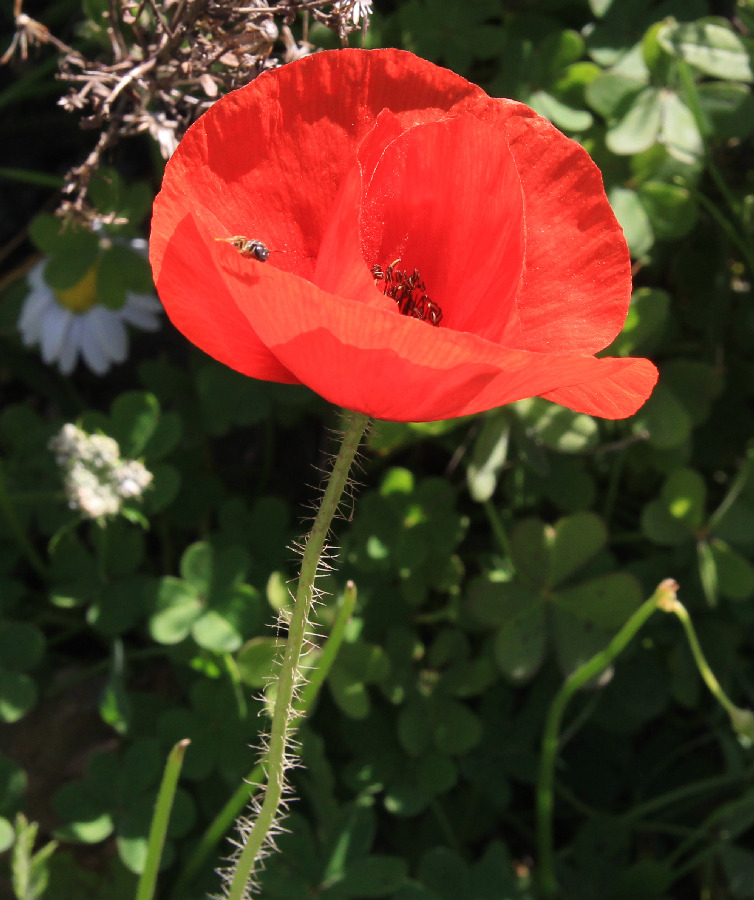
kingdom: Plantae
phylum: Tracheophyta
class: Magnoliopsida
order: Ranunculales
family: Papaveraceae
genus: Papaver
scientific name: Papaver dubium
